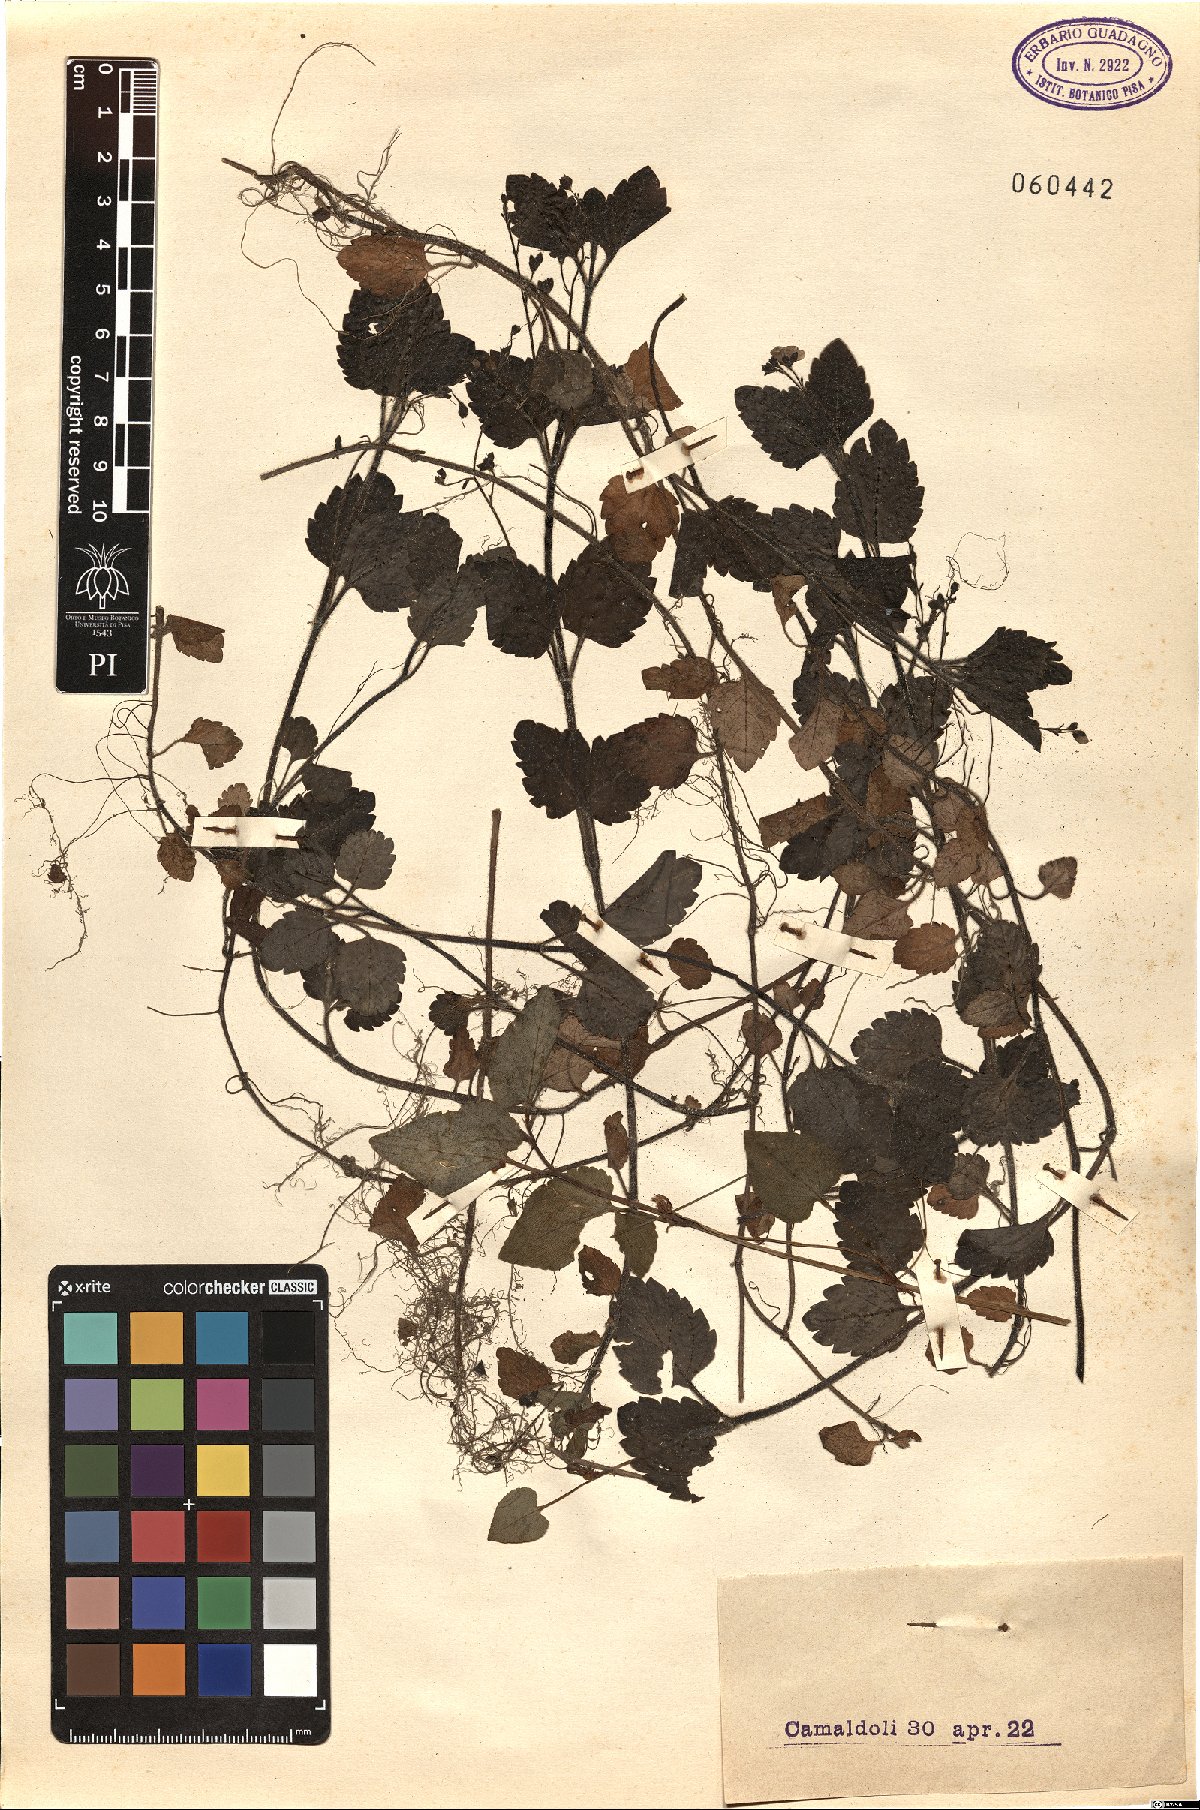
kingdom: Plantae
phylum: Tracheophyta
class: Magnoliopsida
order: Lamiales
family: Plantaginaceae
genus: Veronica
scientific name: Veronica
